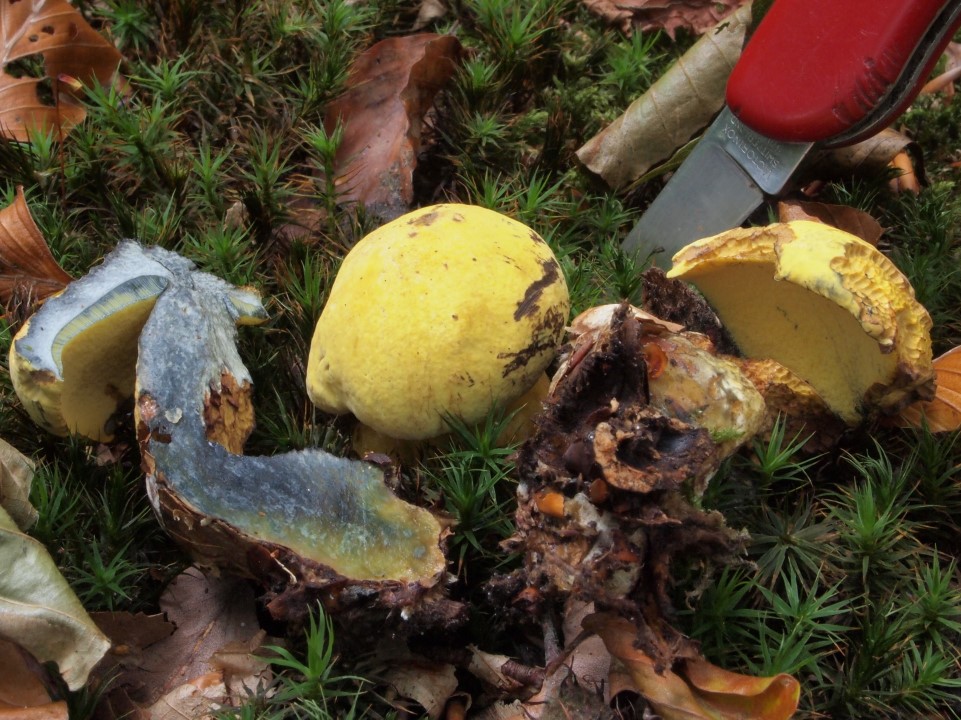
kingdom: Fungi
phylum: Basidiomycota
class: Agaricomycetes
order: Boletales
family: Boletaceae
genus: Neoboletus
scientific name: Neoboletus praestigiator
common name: gul indigorørhat
